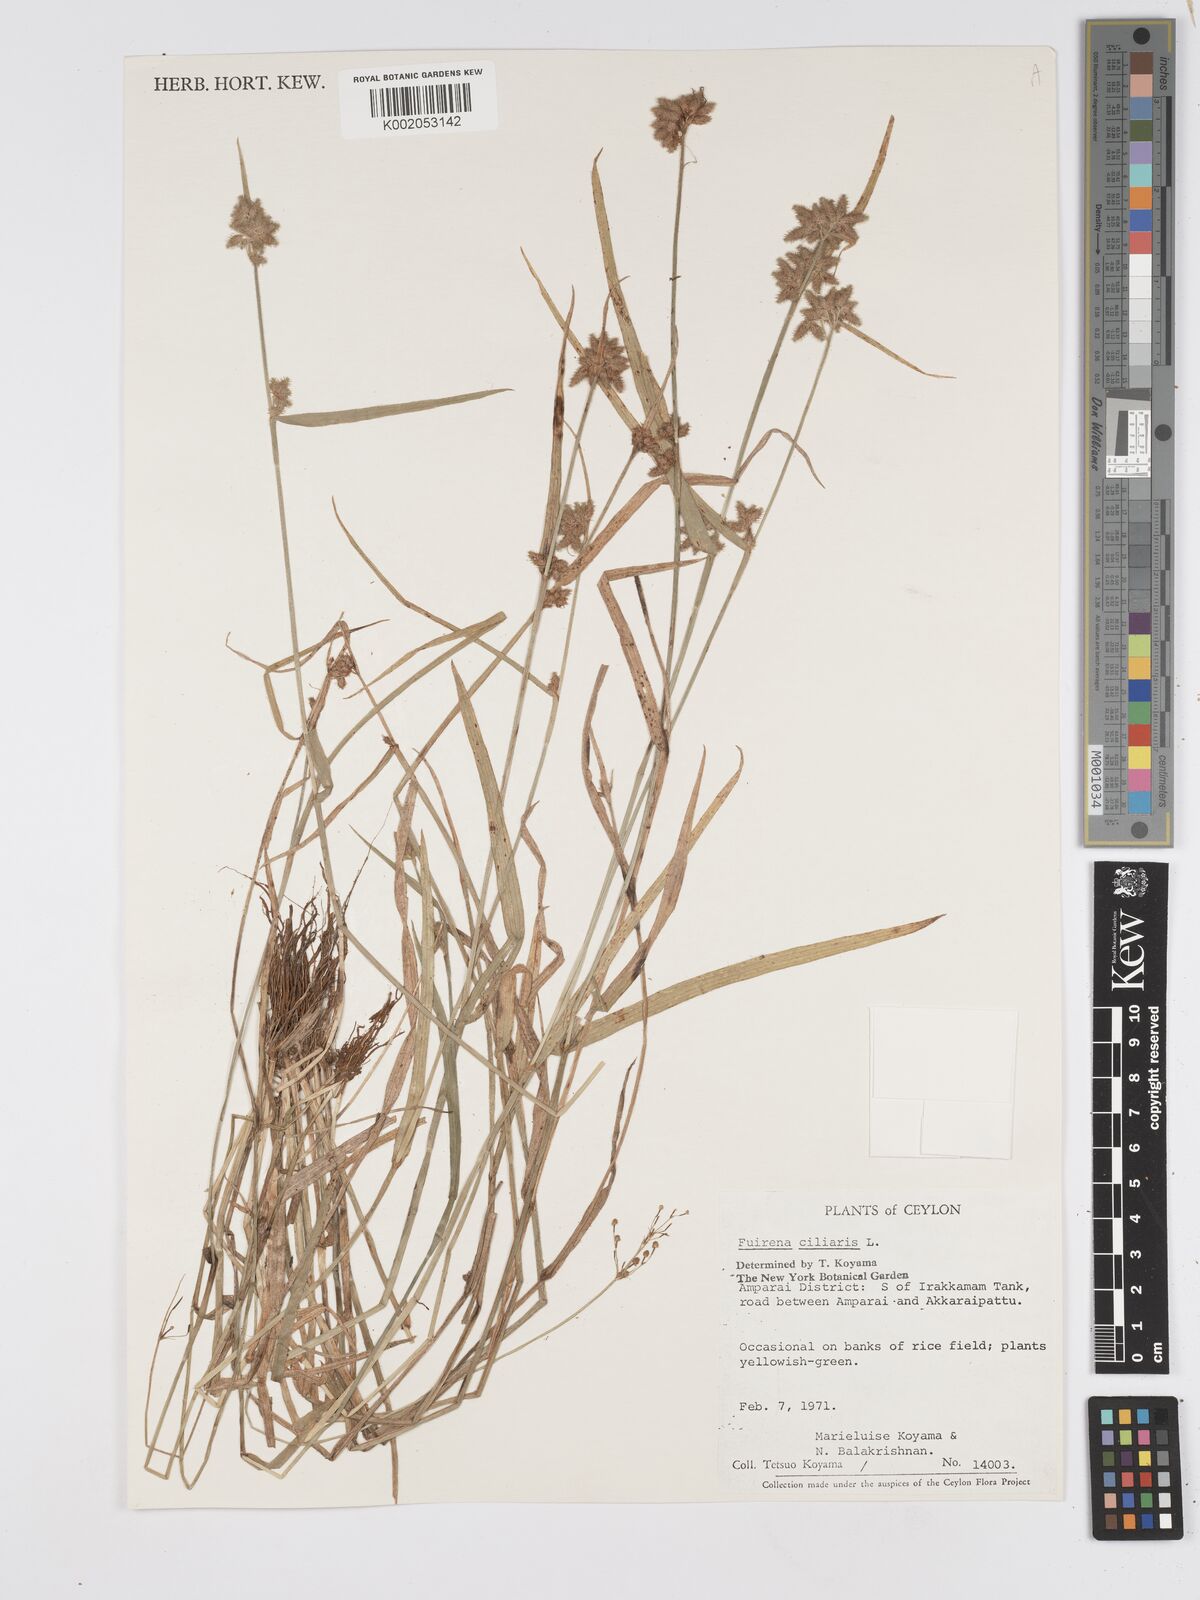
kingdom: Plantae
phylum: Tracheophyta
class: Liliopsida
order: Poales
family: Cyperaceae
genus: Fuirena
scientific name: Fuirena ciliaris
